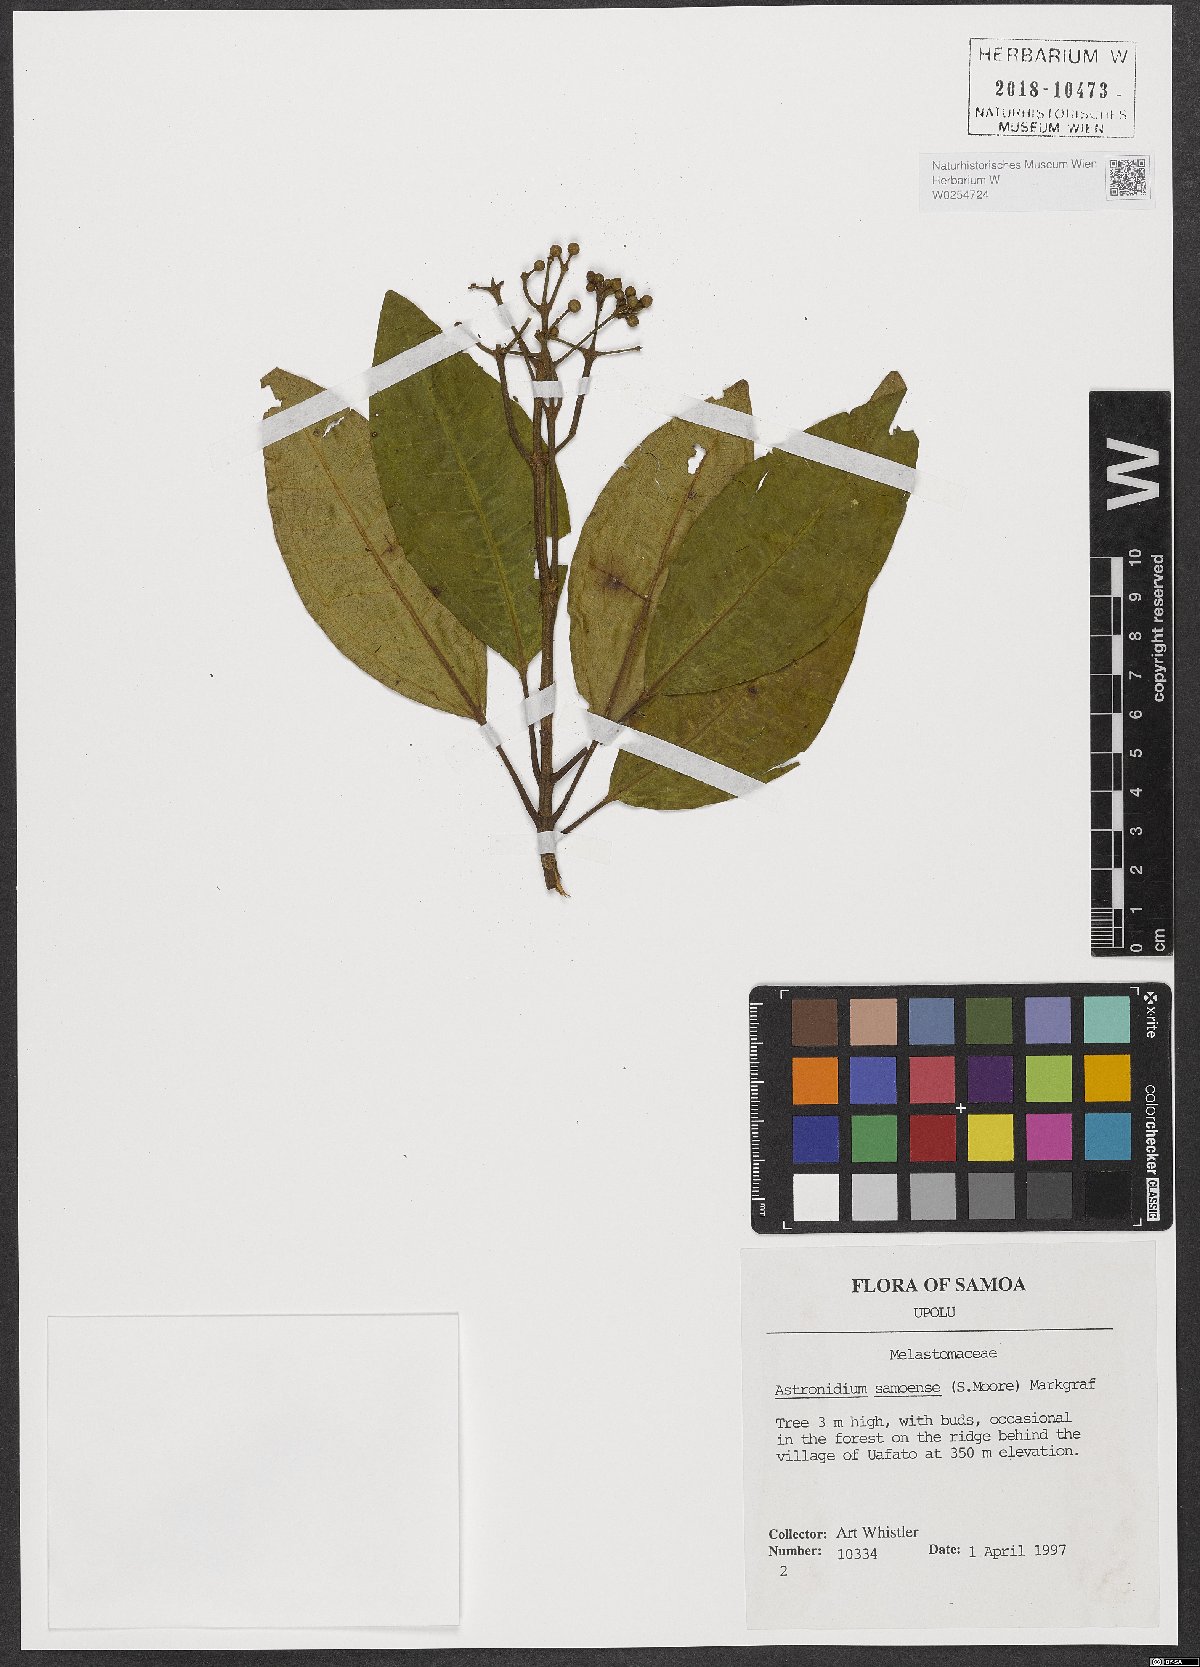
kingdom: Plantae
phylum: Tracheophyta
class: Magnoliopsida
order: Myrtales
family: Melastomataceae
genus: Astronidium
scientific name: Astronidium samoense
